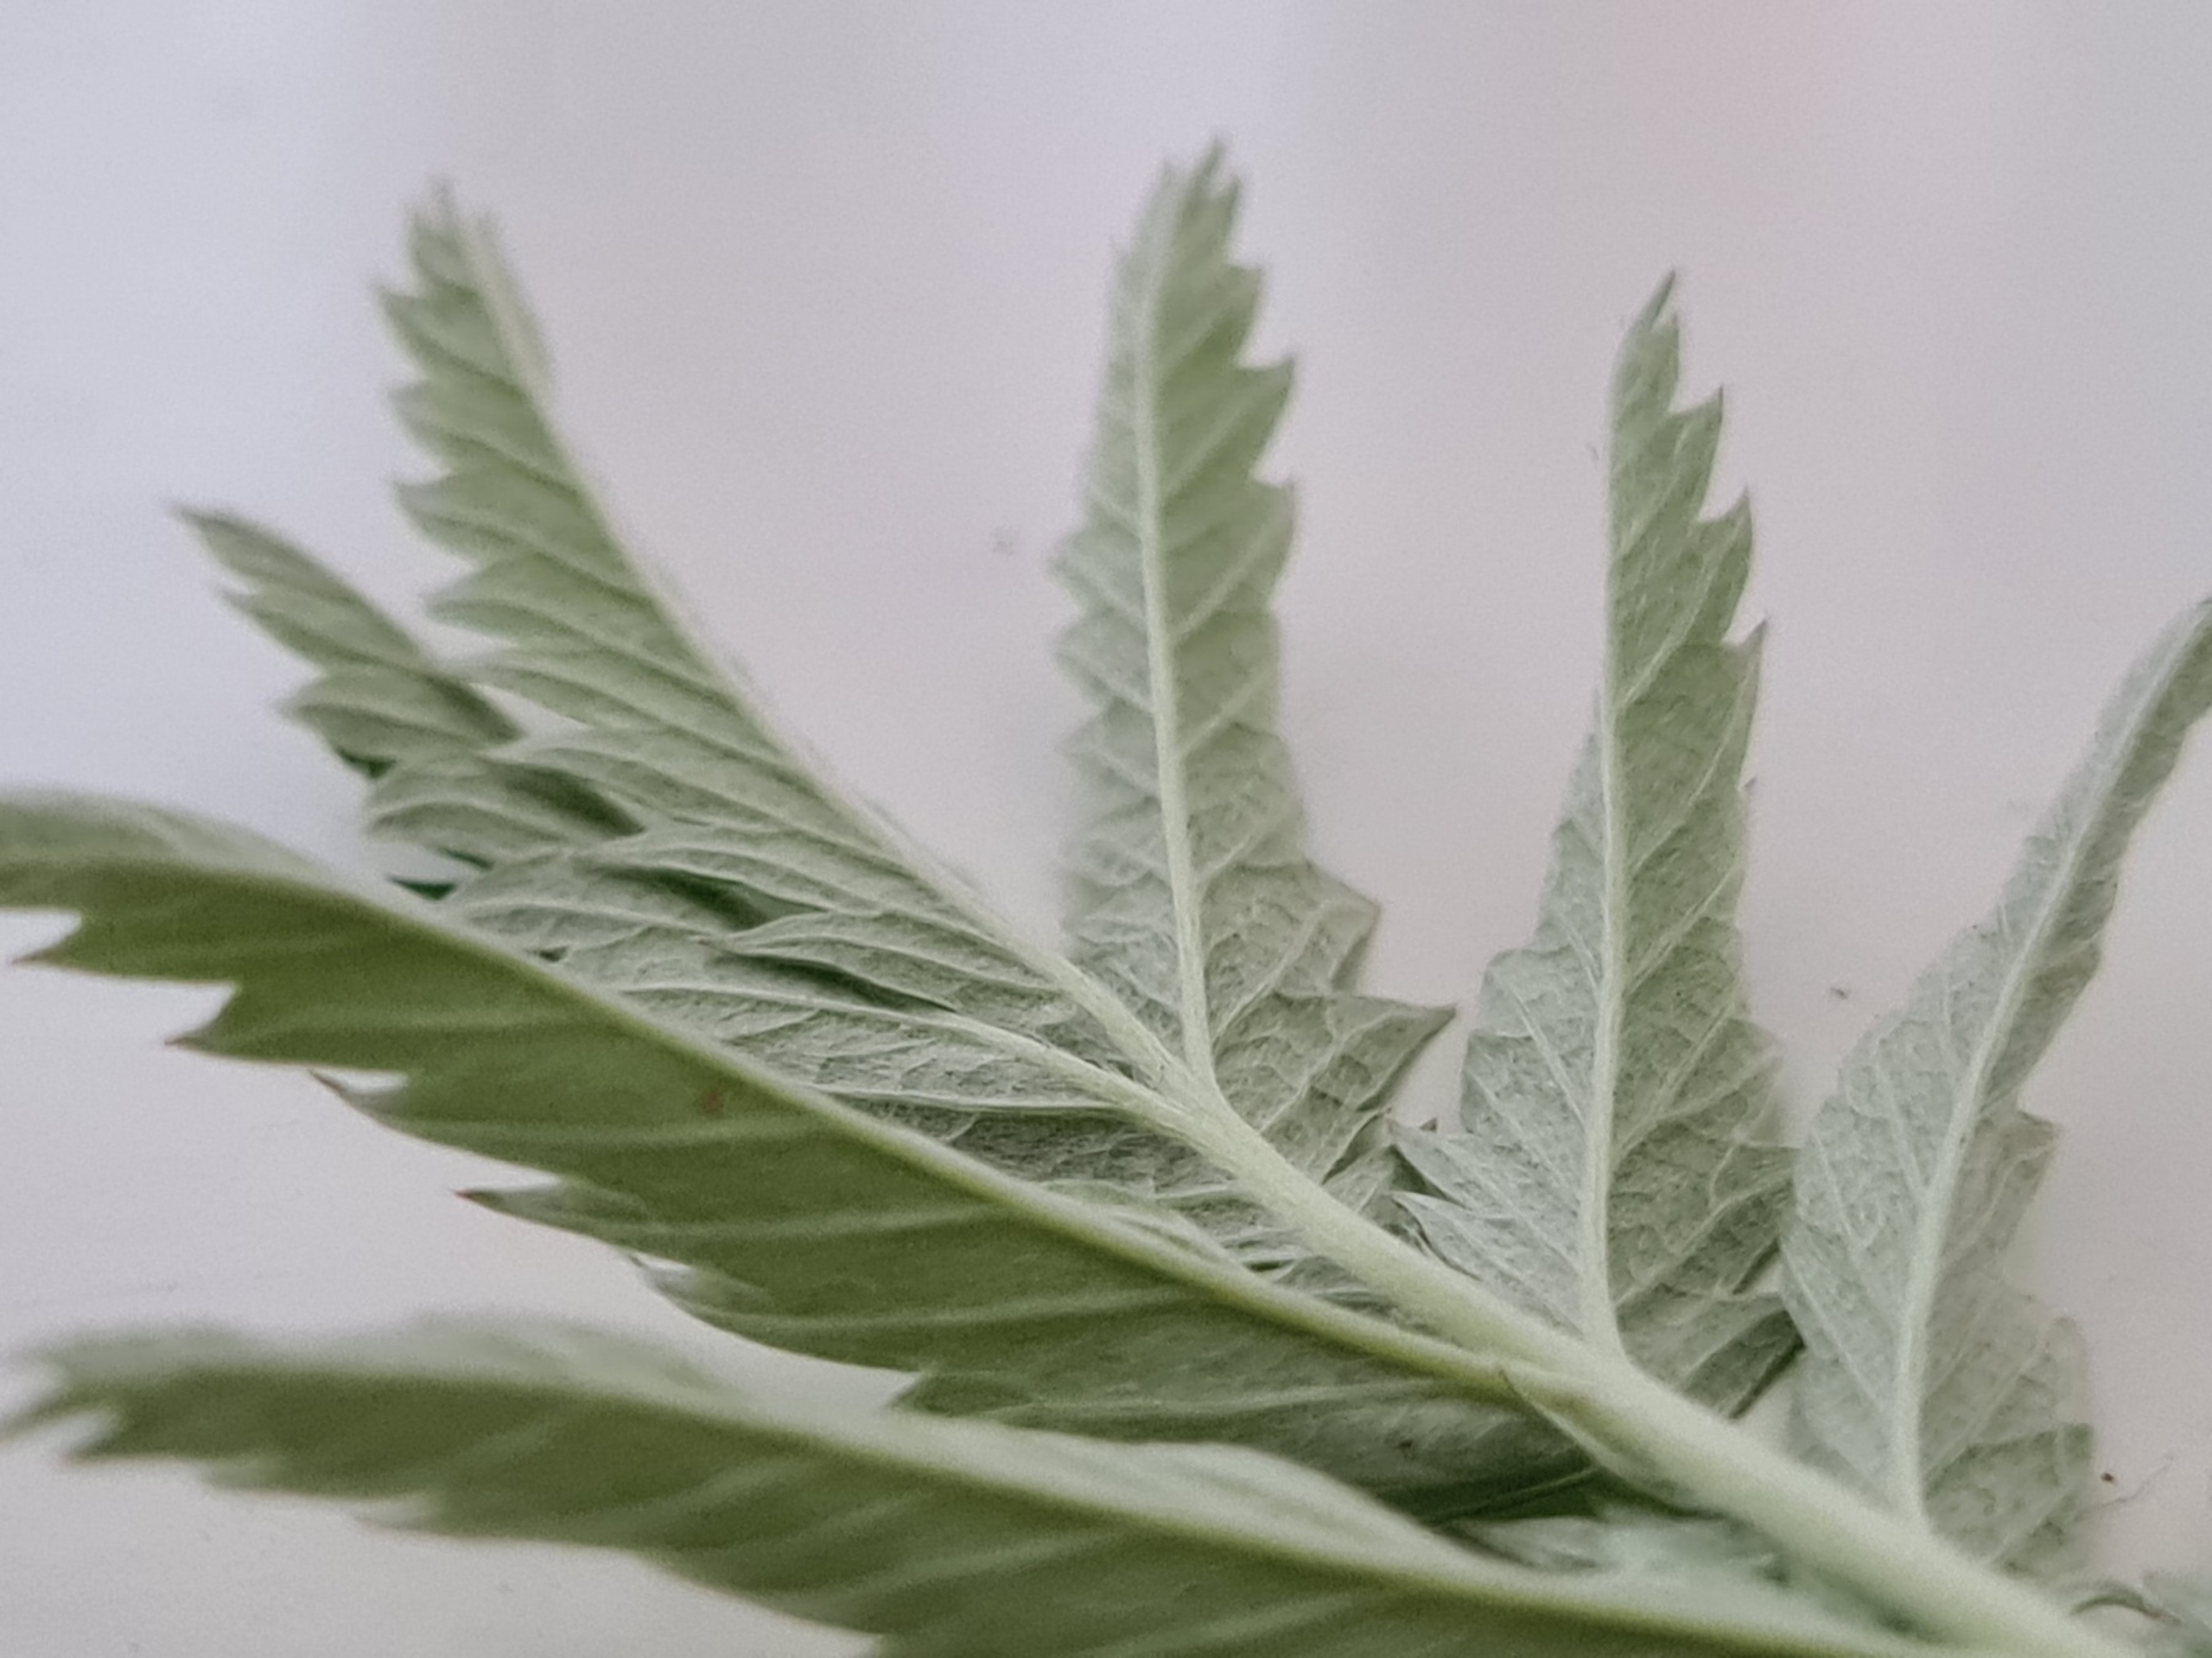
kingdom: Plantae
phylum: Tracheophyta
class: Magnoliopsida
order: Rosales
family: Rosaceae
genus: Argentina
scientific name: Argentina anserina
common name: Gåsepotentil
